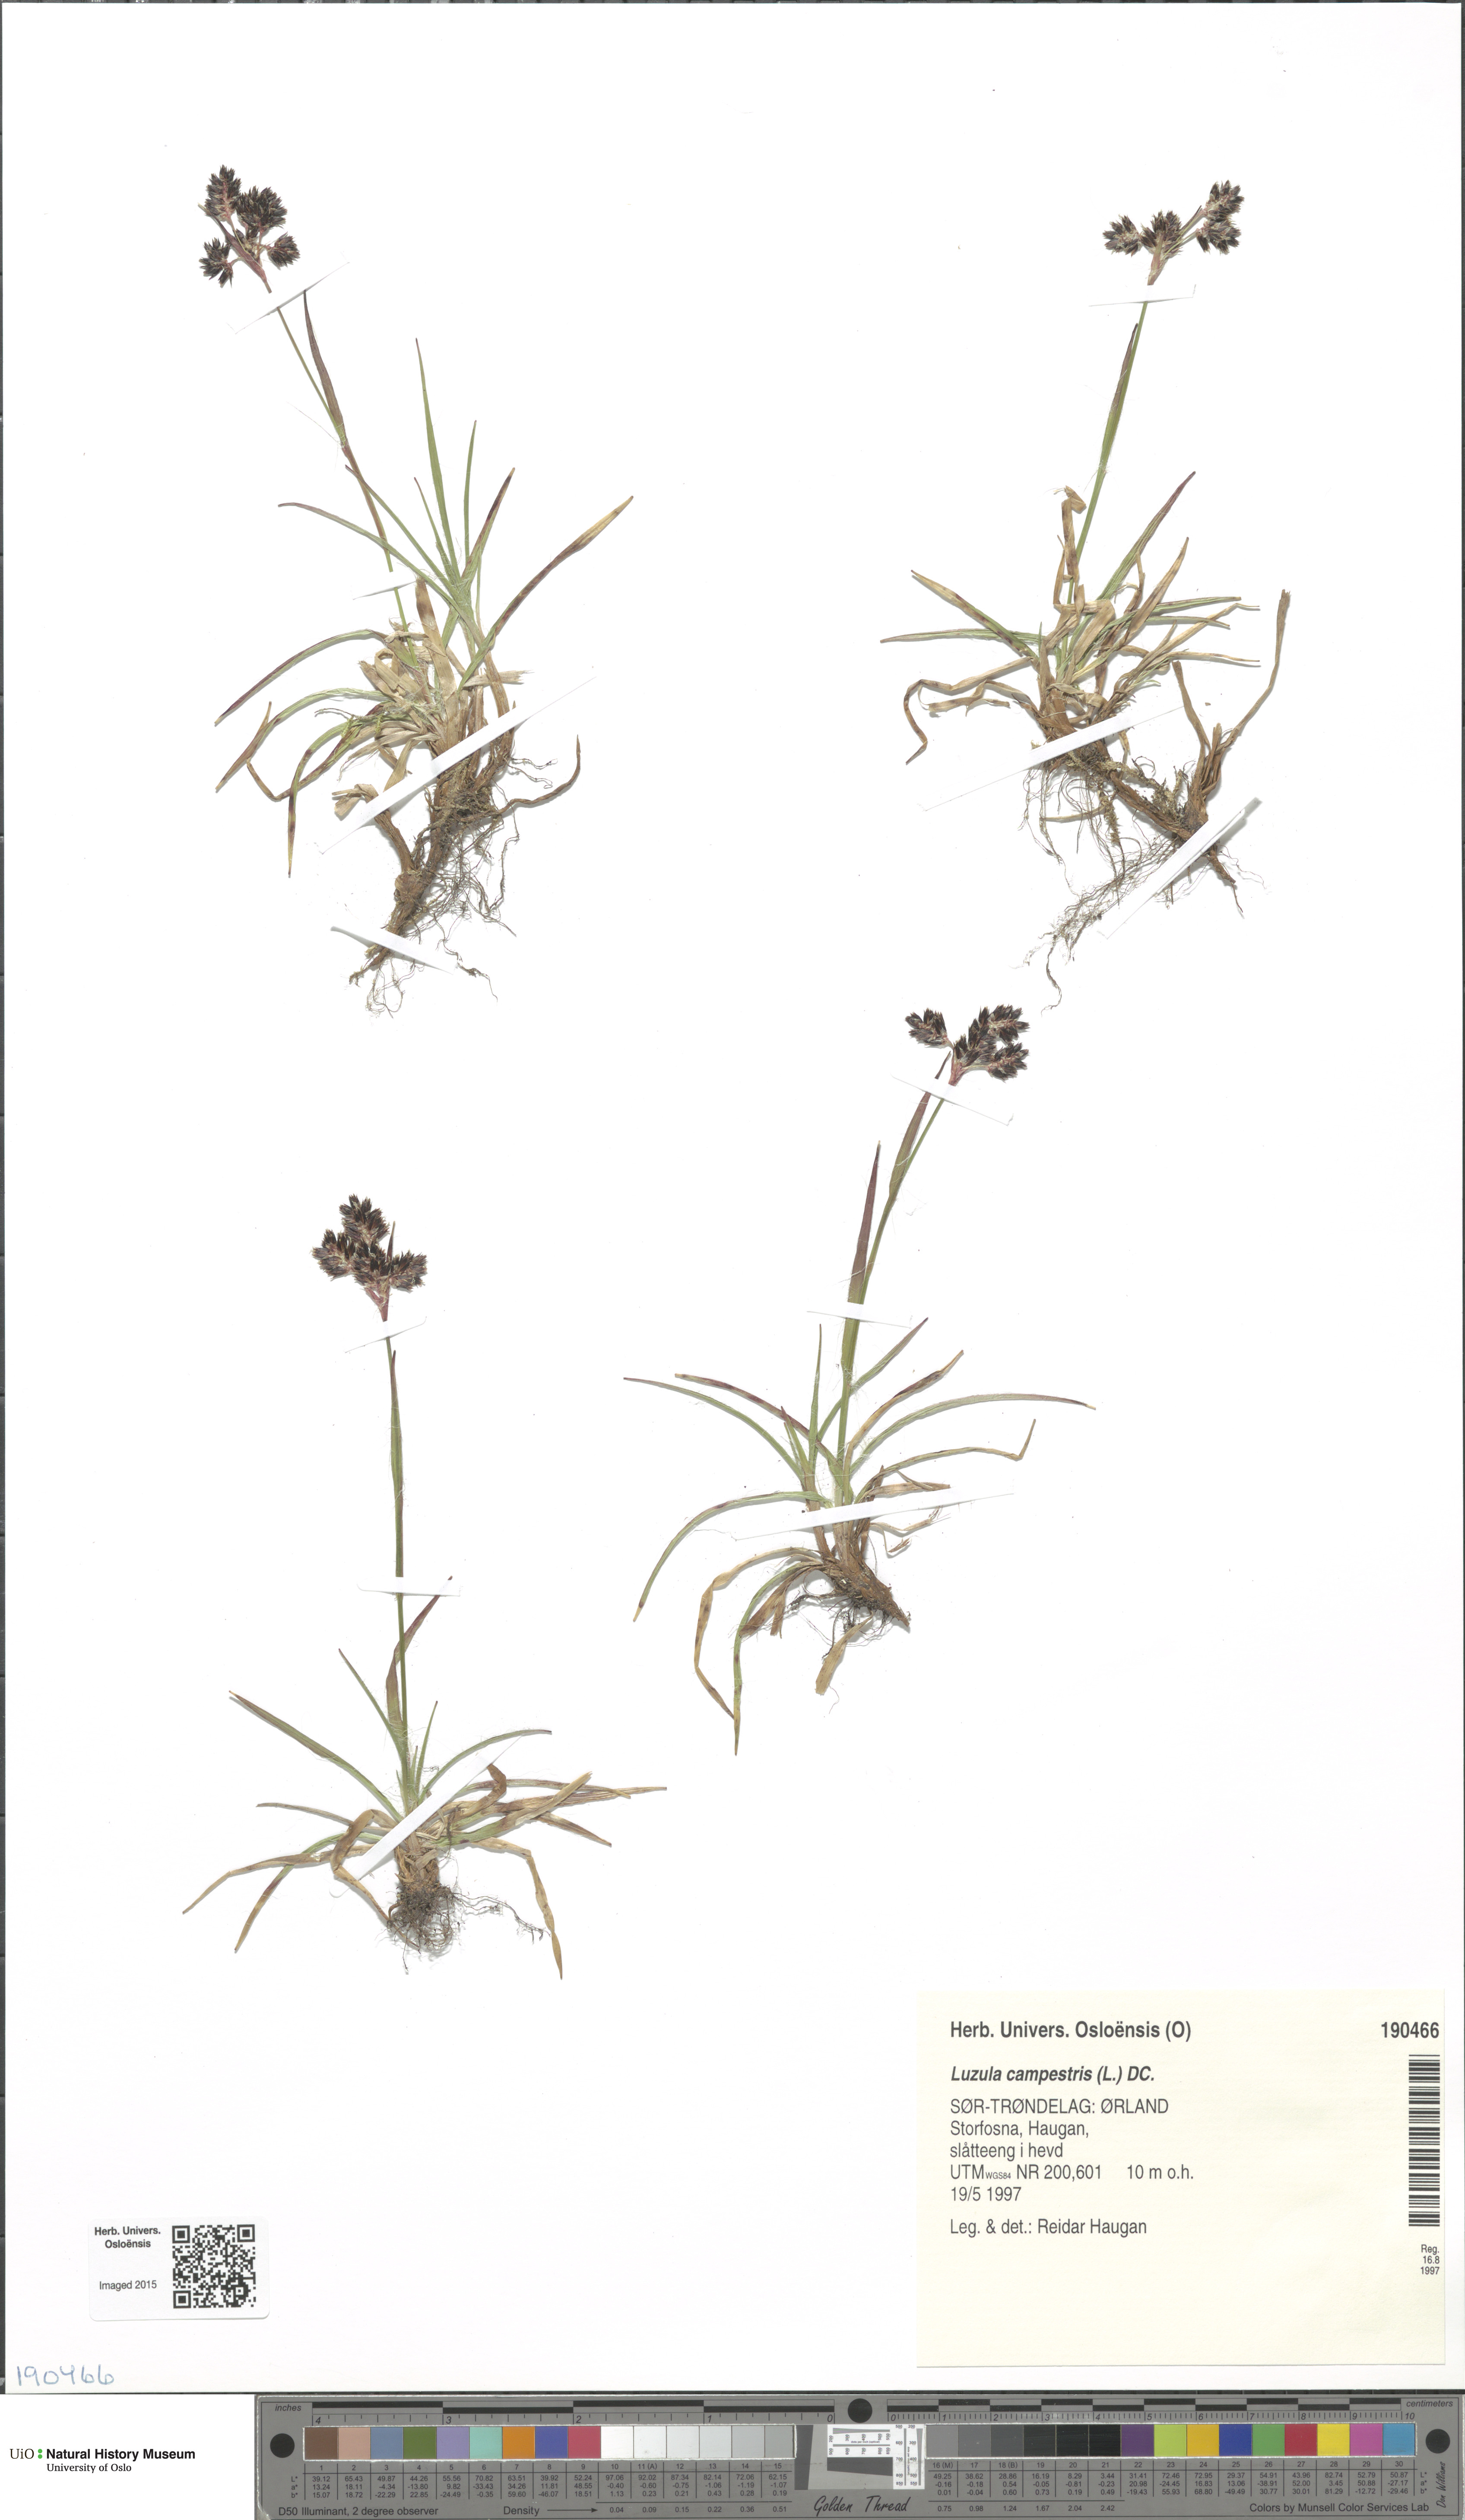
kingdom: Plantae
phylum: Tracheophyta
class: Liliopsida
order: Poales
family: Juncaceae
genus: Luzula
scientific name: Luzula campestris
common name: Field wood-rush
